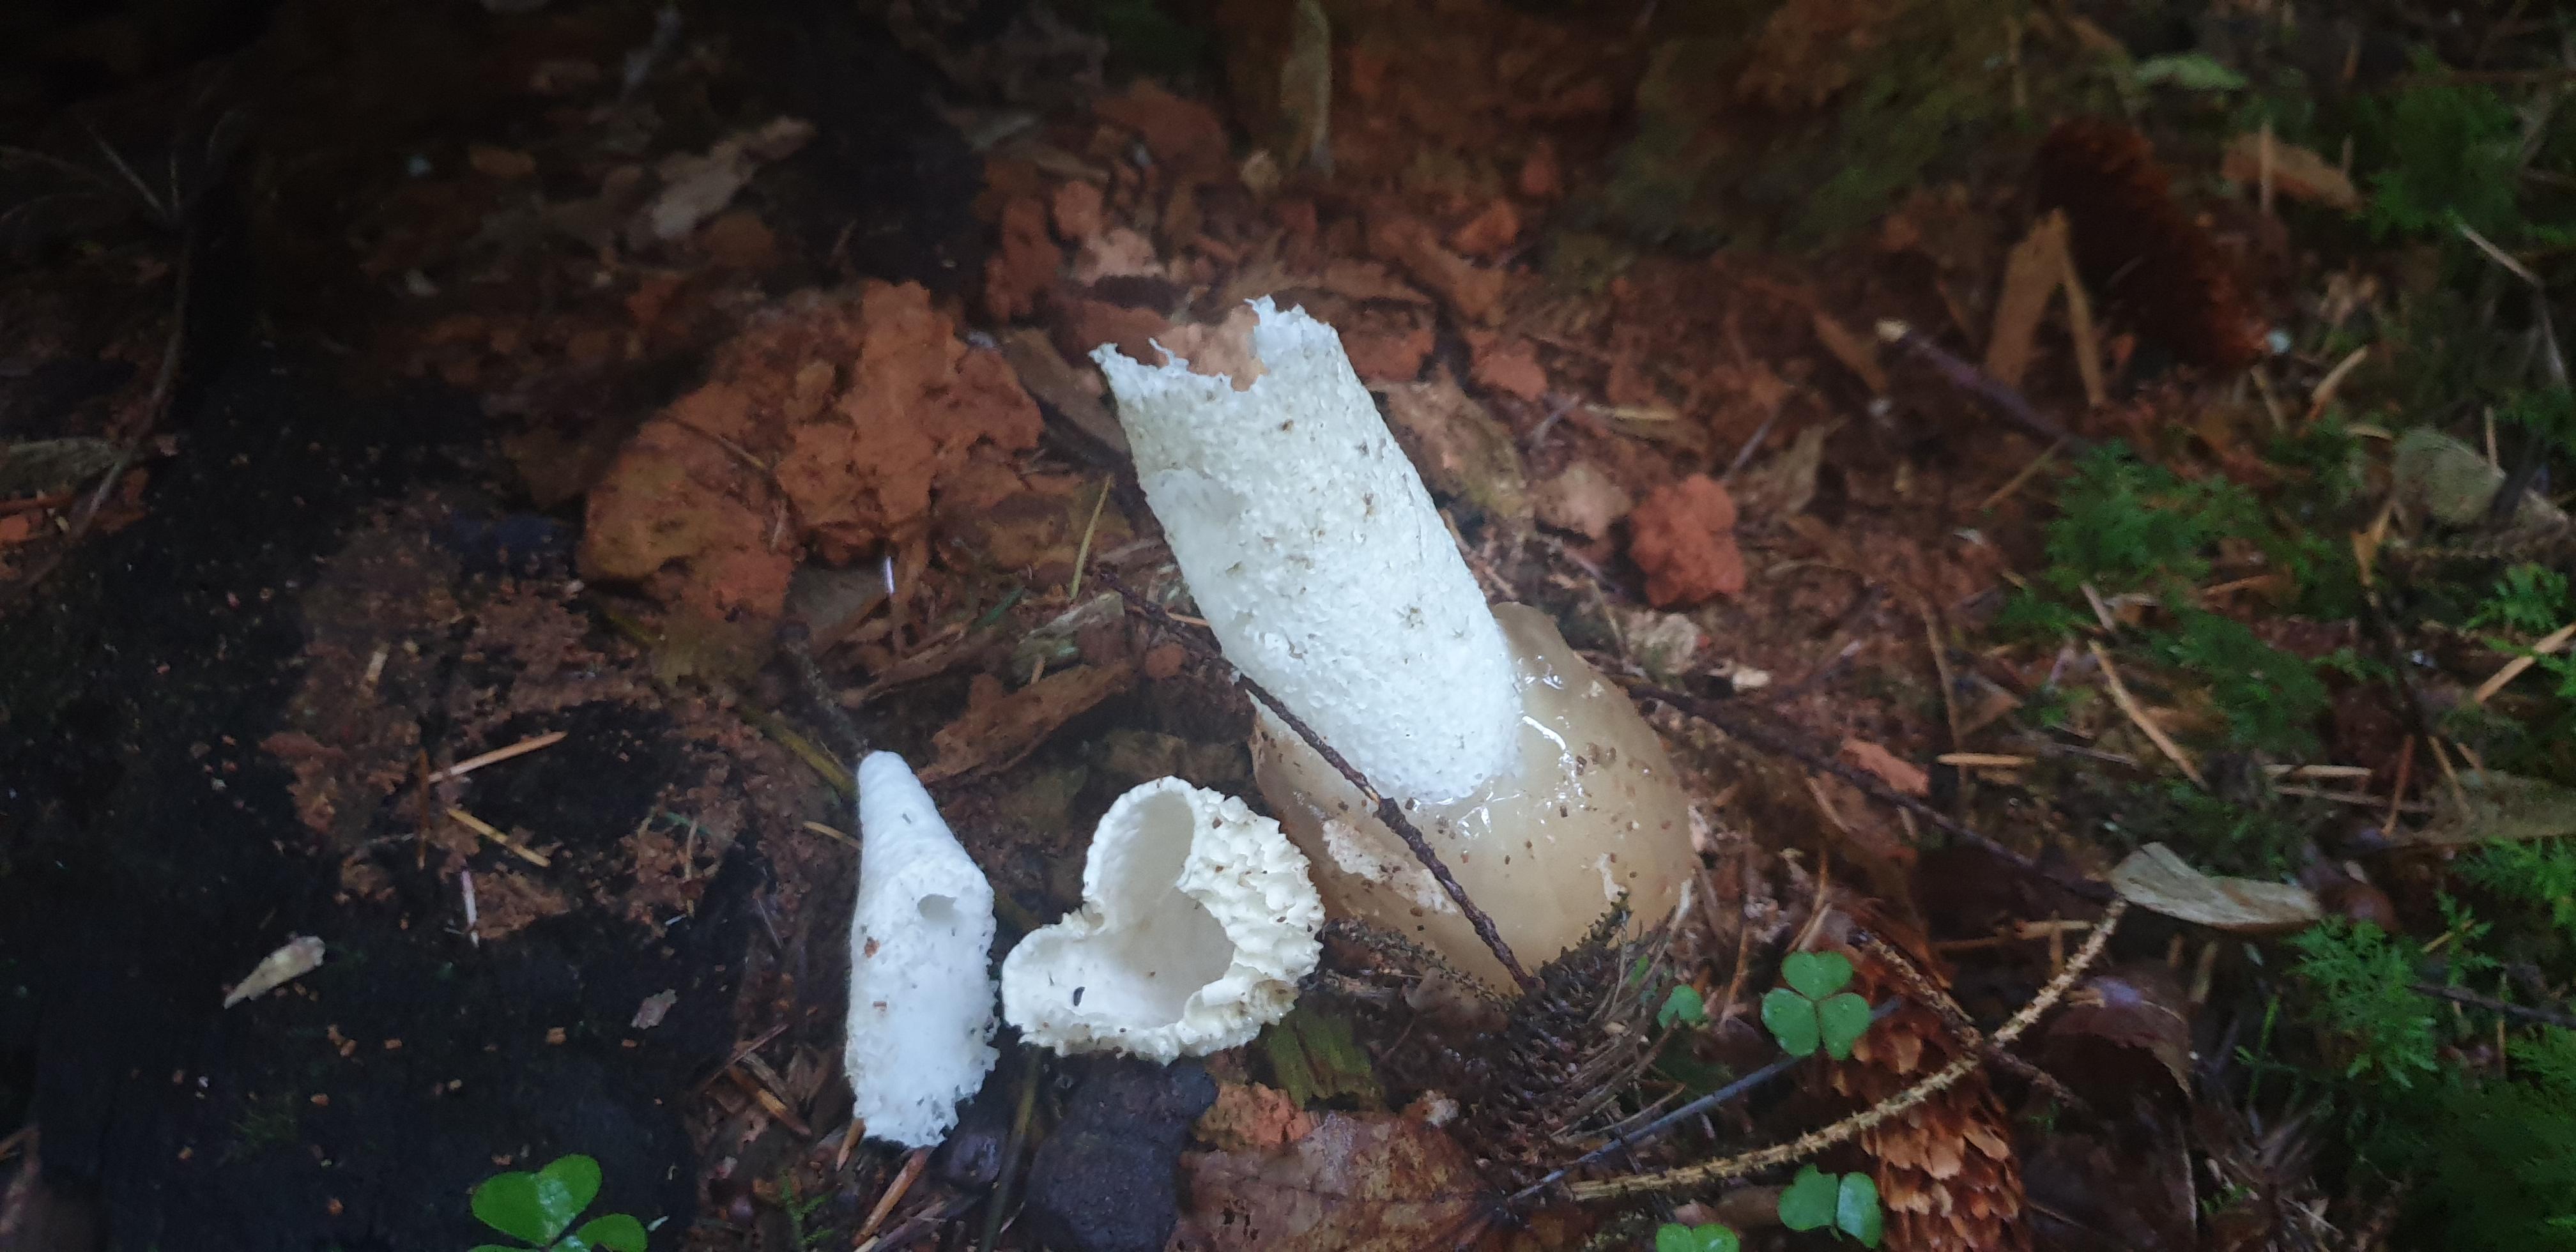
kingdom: Fungi
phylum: Basidiomycota
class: Agaricomycetes
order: Phallales
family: Phallaceae
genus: Phallus
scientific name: Phallus impudicus
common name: almindelig stinksvamp
